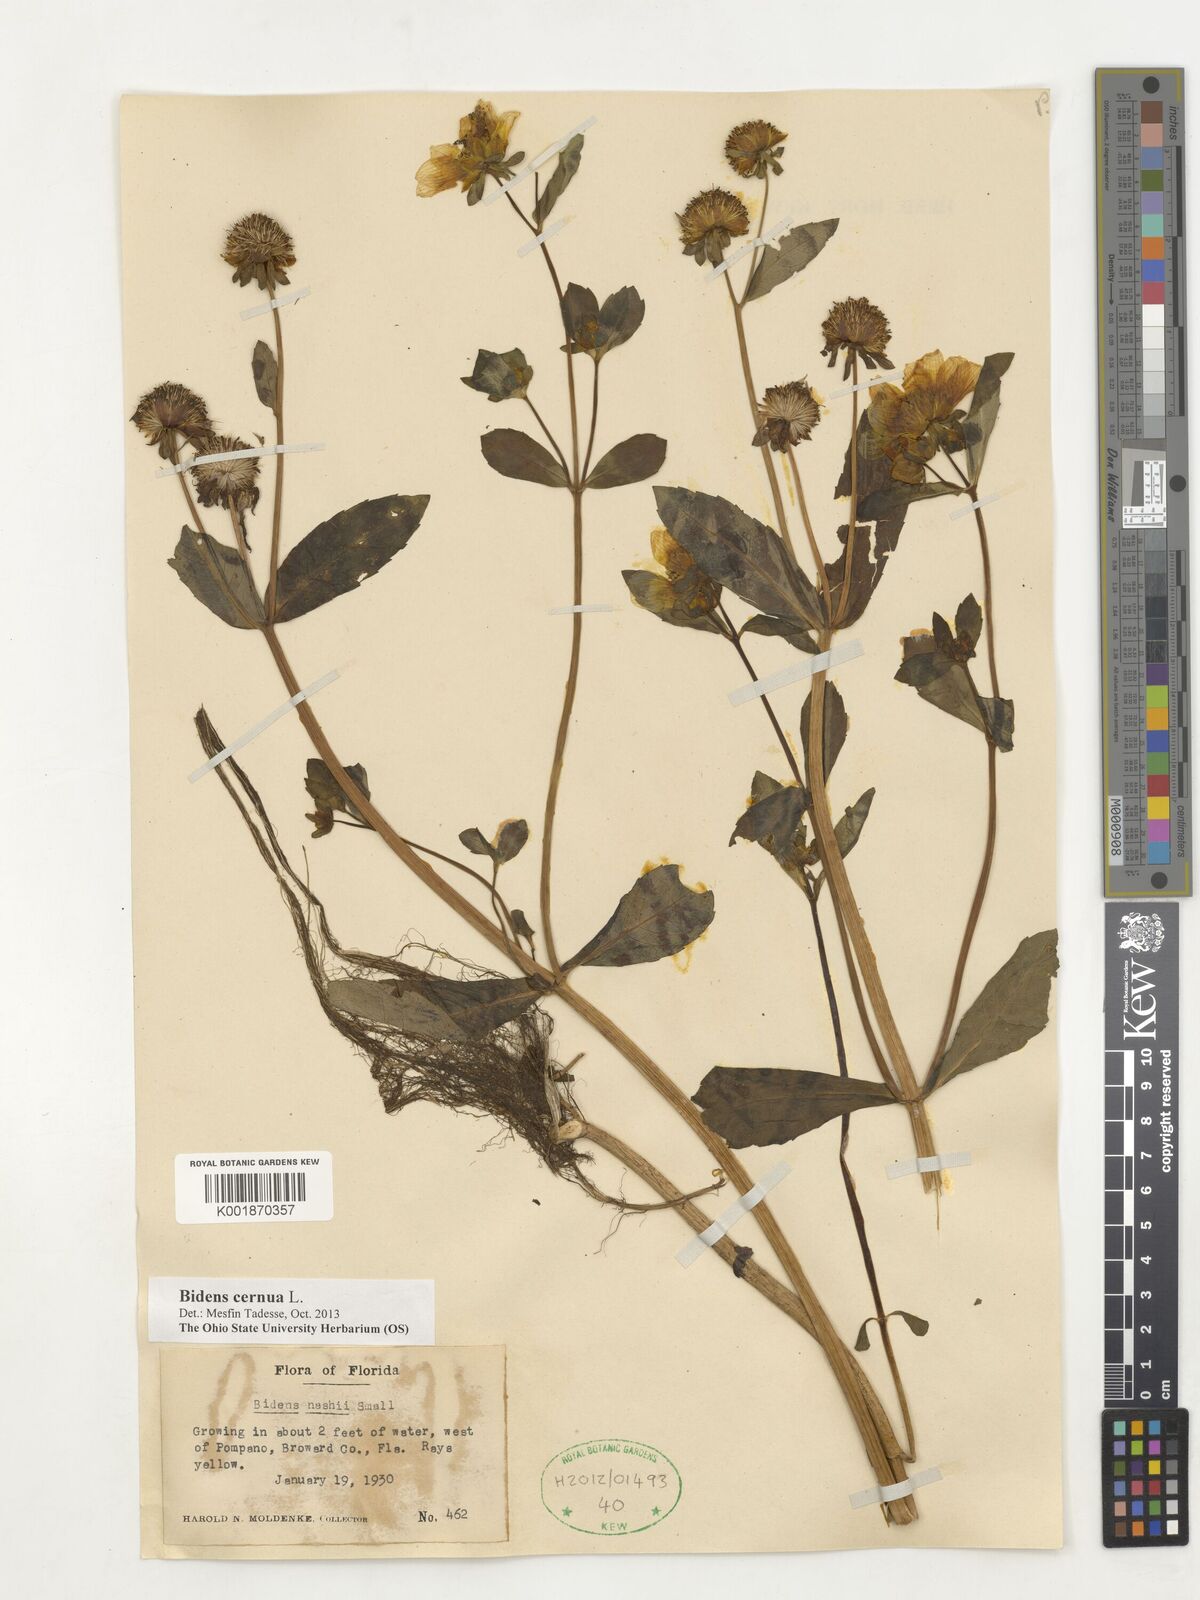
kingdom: Plantae
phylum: Tracheophyta
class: Magnoliopsida
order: Asterales
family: Asteraceae
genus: Bidens
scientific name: Bidens cernua
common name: Nodding bur-marigold
